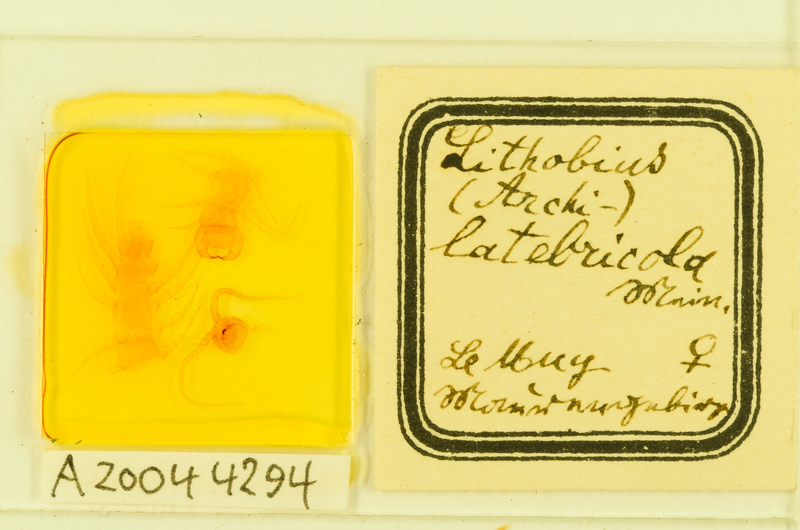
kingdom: Animalia
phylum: Arthropoda
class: Chilopoda
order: Lithobiomorpha
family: Lithobiidae
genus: Lithobius
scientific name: Lithobius pyrenaicus
